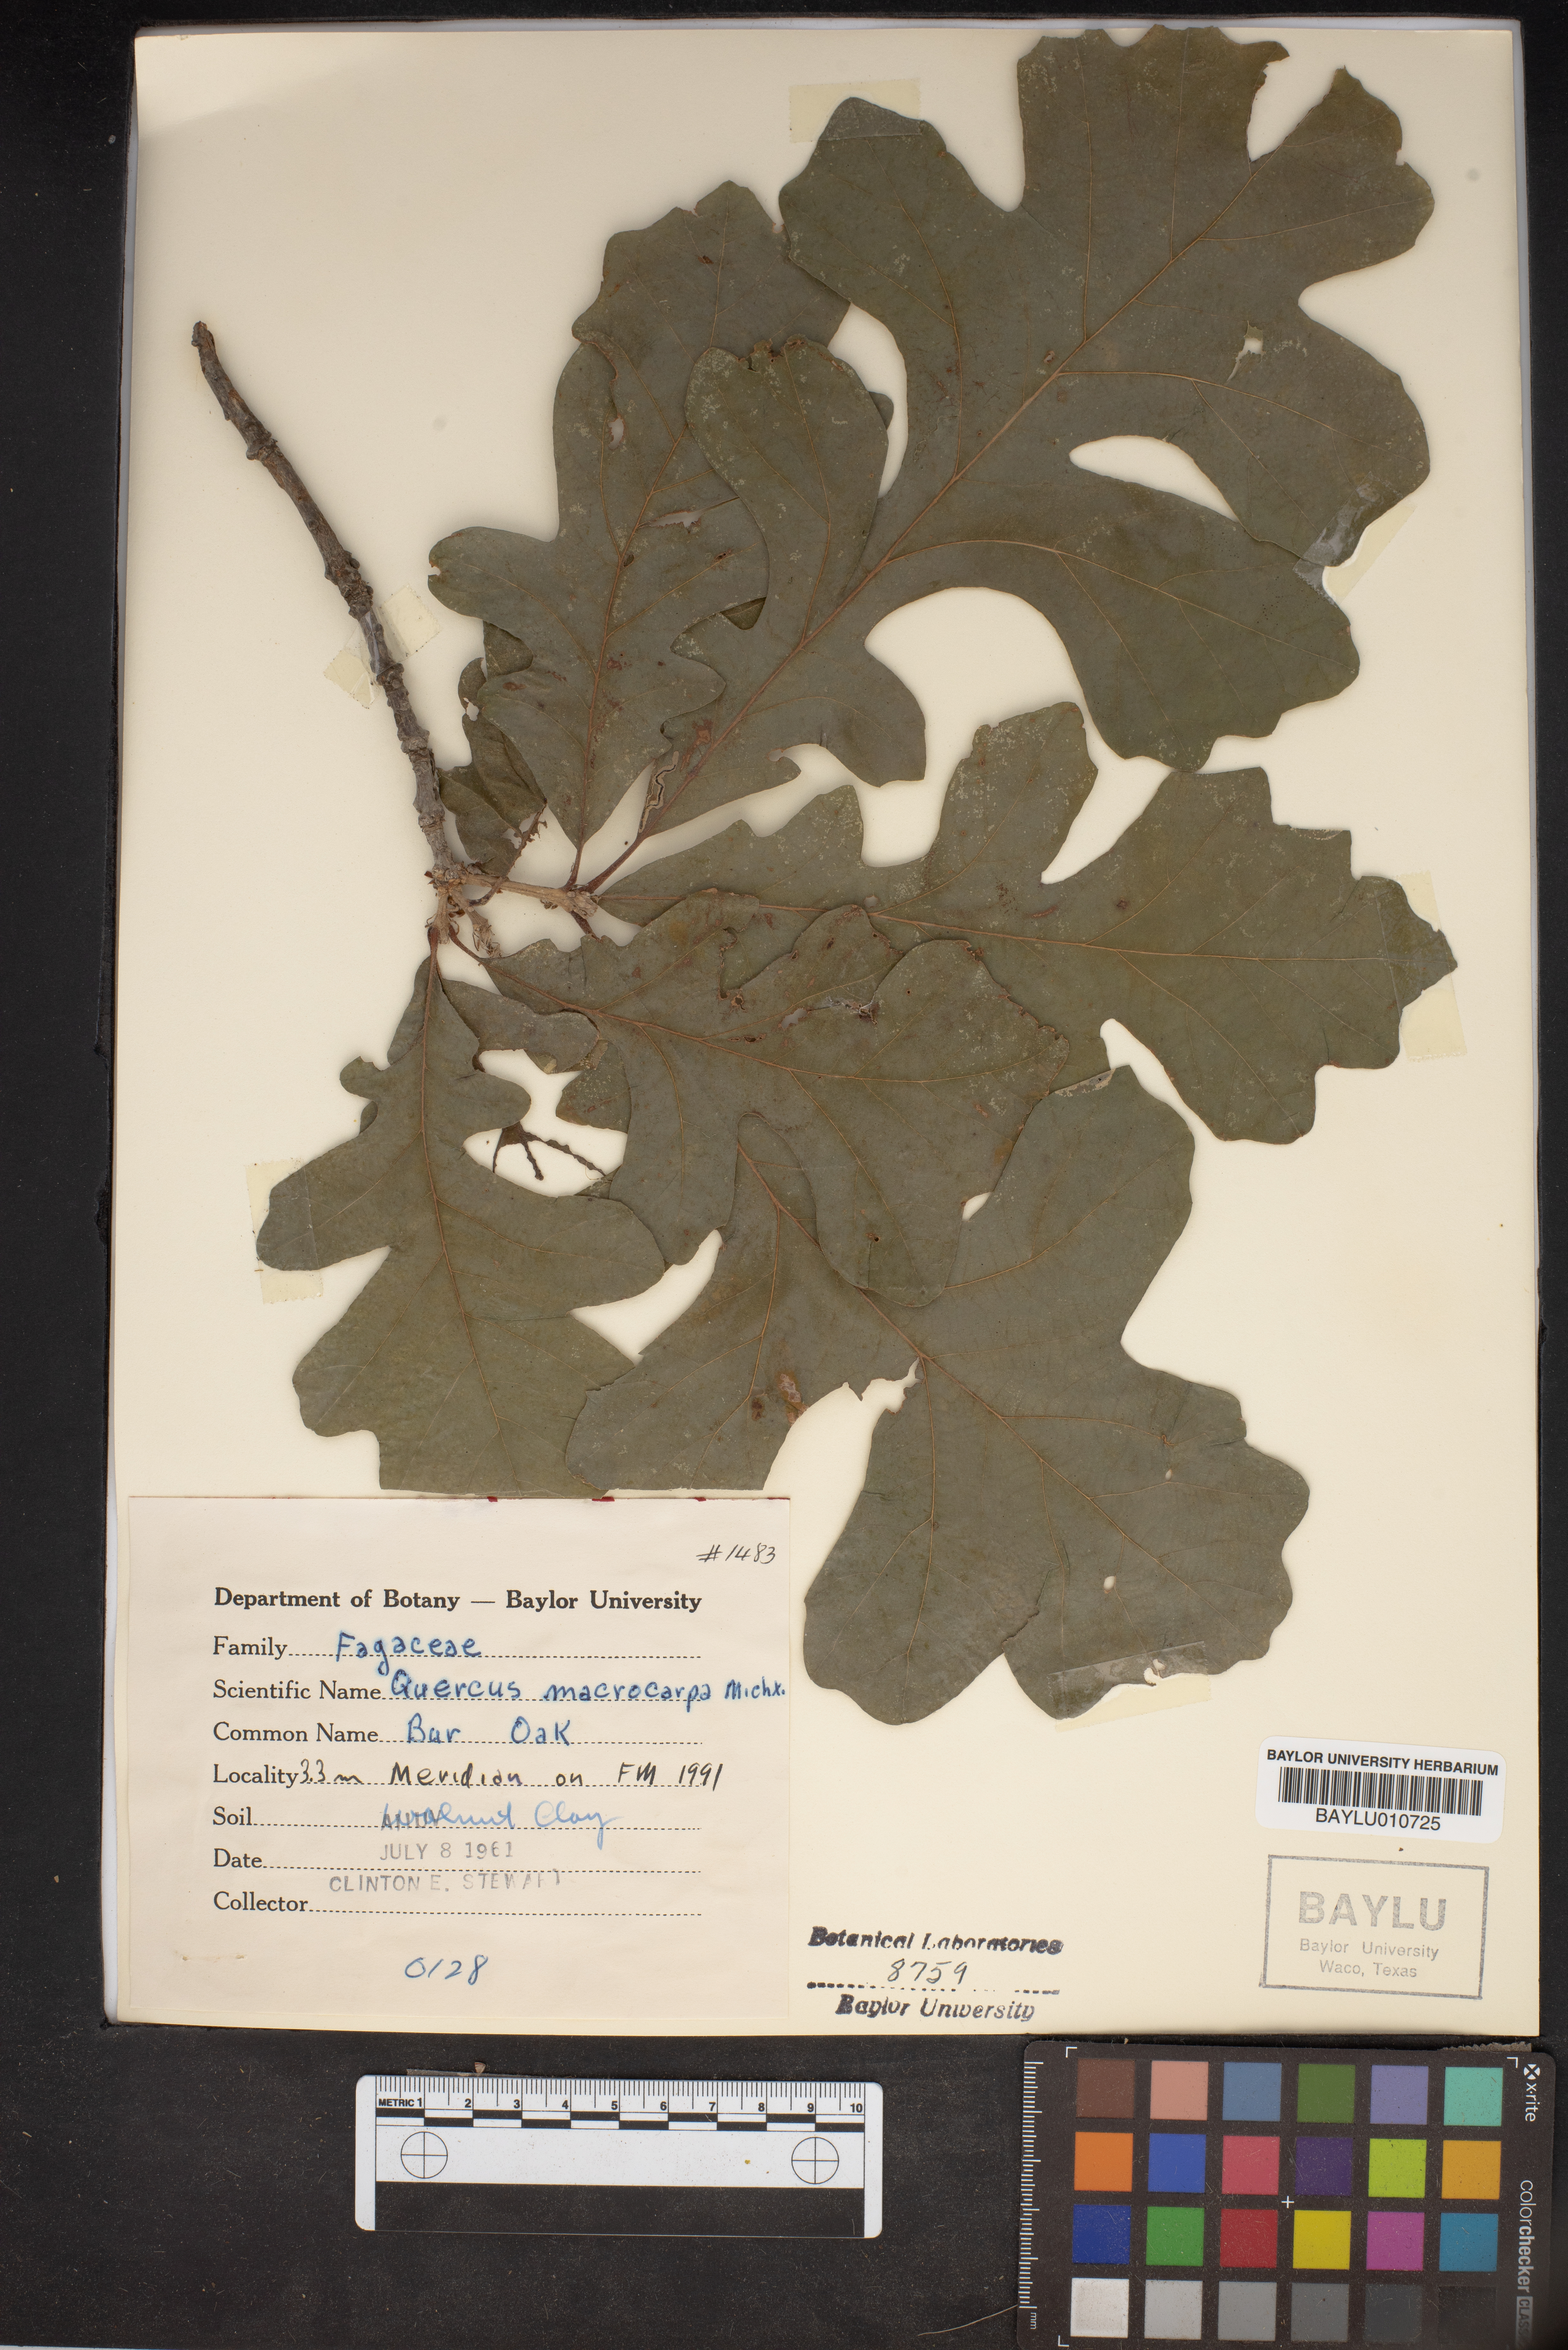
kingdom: Plantae
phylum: Tracheophyta
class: Magnoliopsida
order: Fagales
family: Fagaceae
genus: Quercus
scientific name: Quercus macrocarpa
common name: Bur oak
